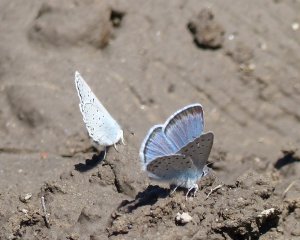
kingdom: Animalia
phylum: Arthropoda
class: Insecta
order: Lepidoptera
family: Lycaenidae
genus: Plebejus
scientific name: Plebejus saepiolus
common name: Greenish Blue
